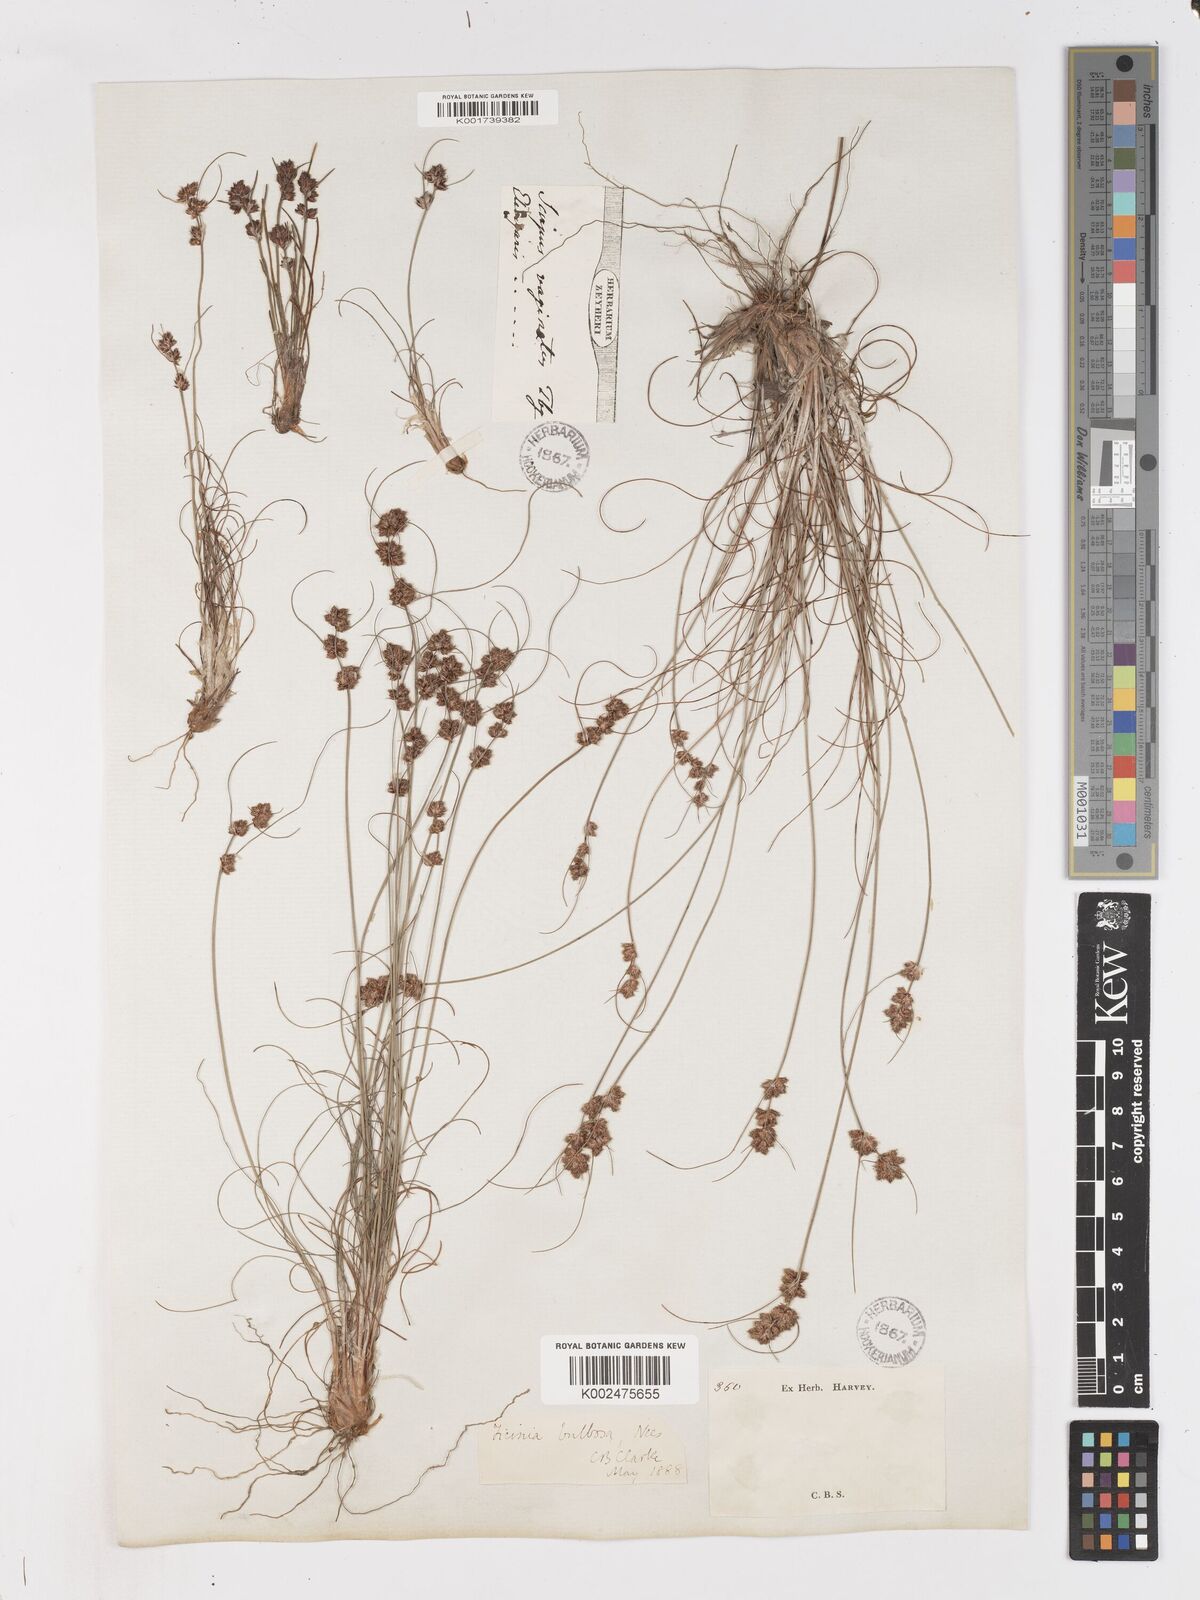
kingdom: Plantae
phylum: Tracheophyta
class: Liliopsida
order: Poales
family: Cyperaceae
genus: Ficinia
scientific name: Ficinia bulbosa
